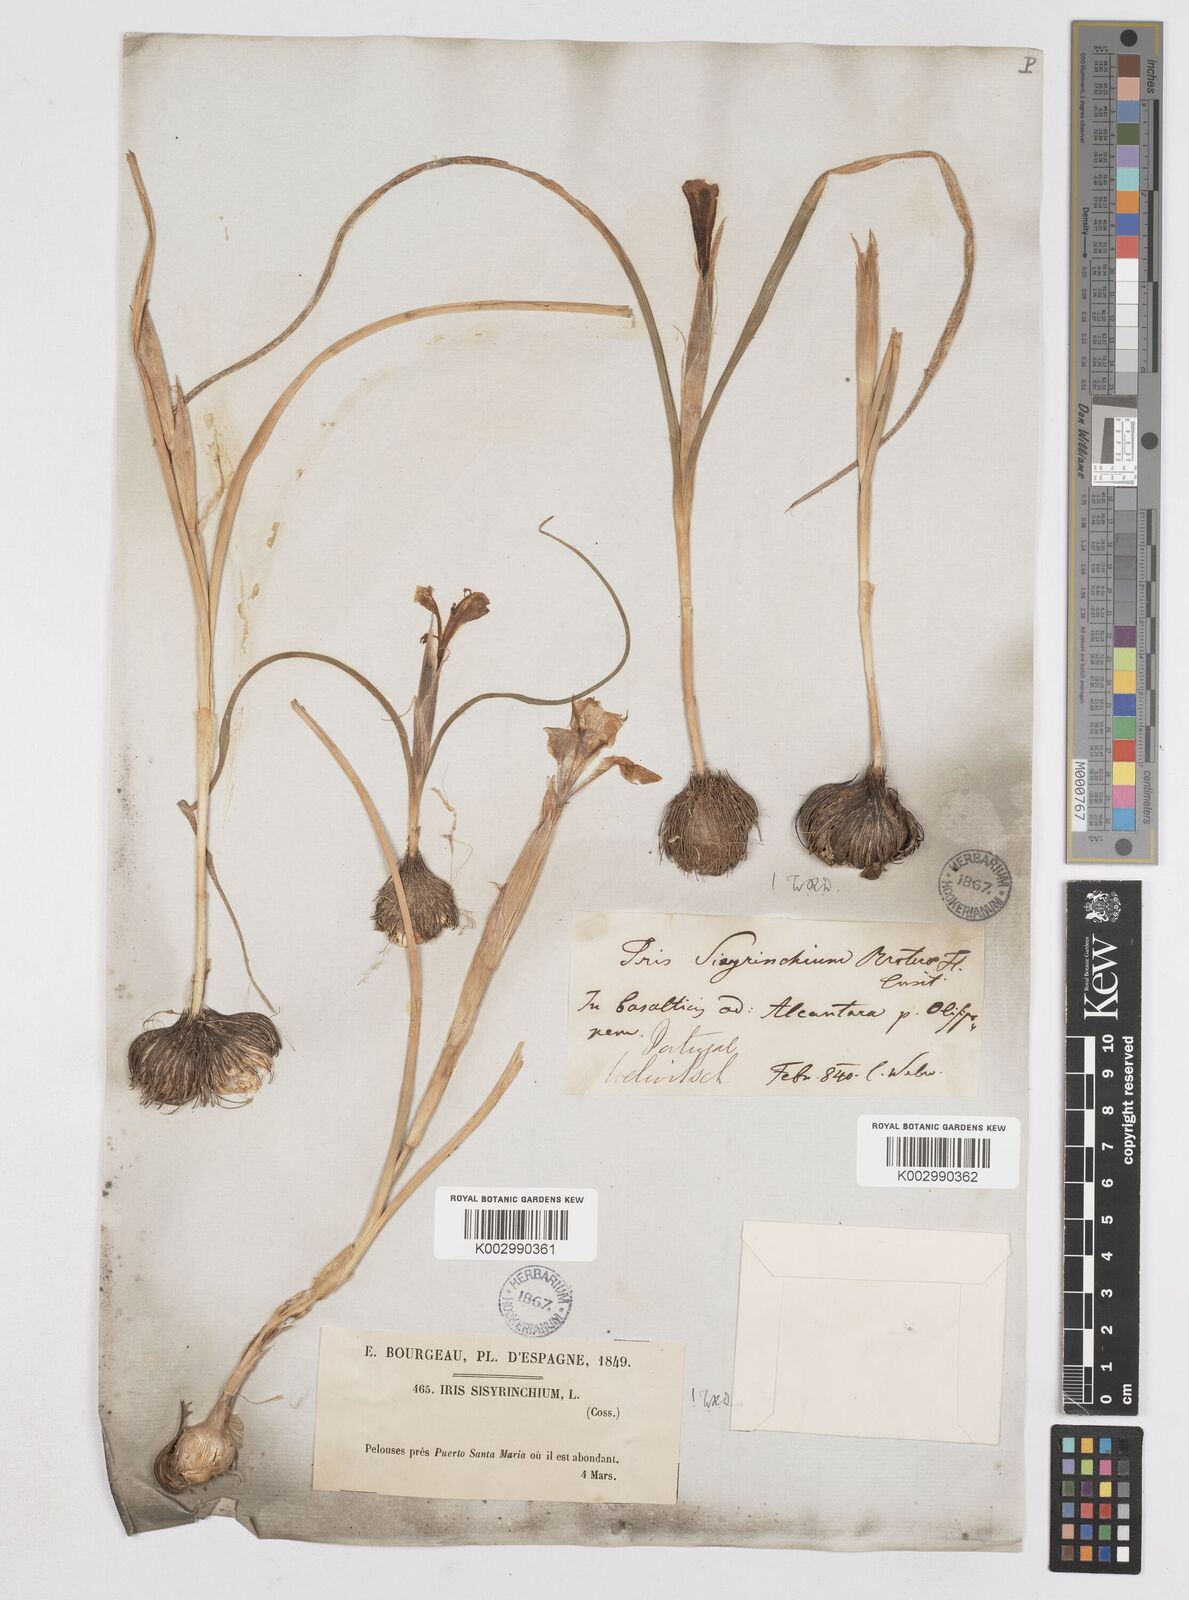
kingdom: Plantae
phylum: Tracheophyta
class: Liliopsida
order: Asparagales
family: Iridaceae
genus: Moraea
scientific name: Moraea sisyrinchium
